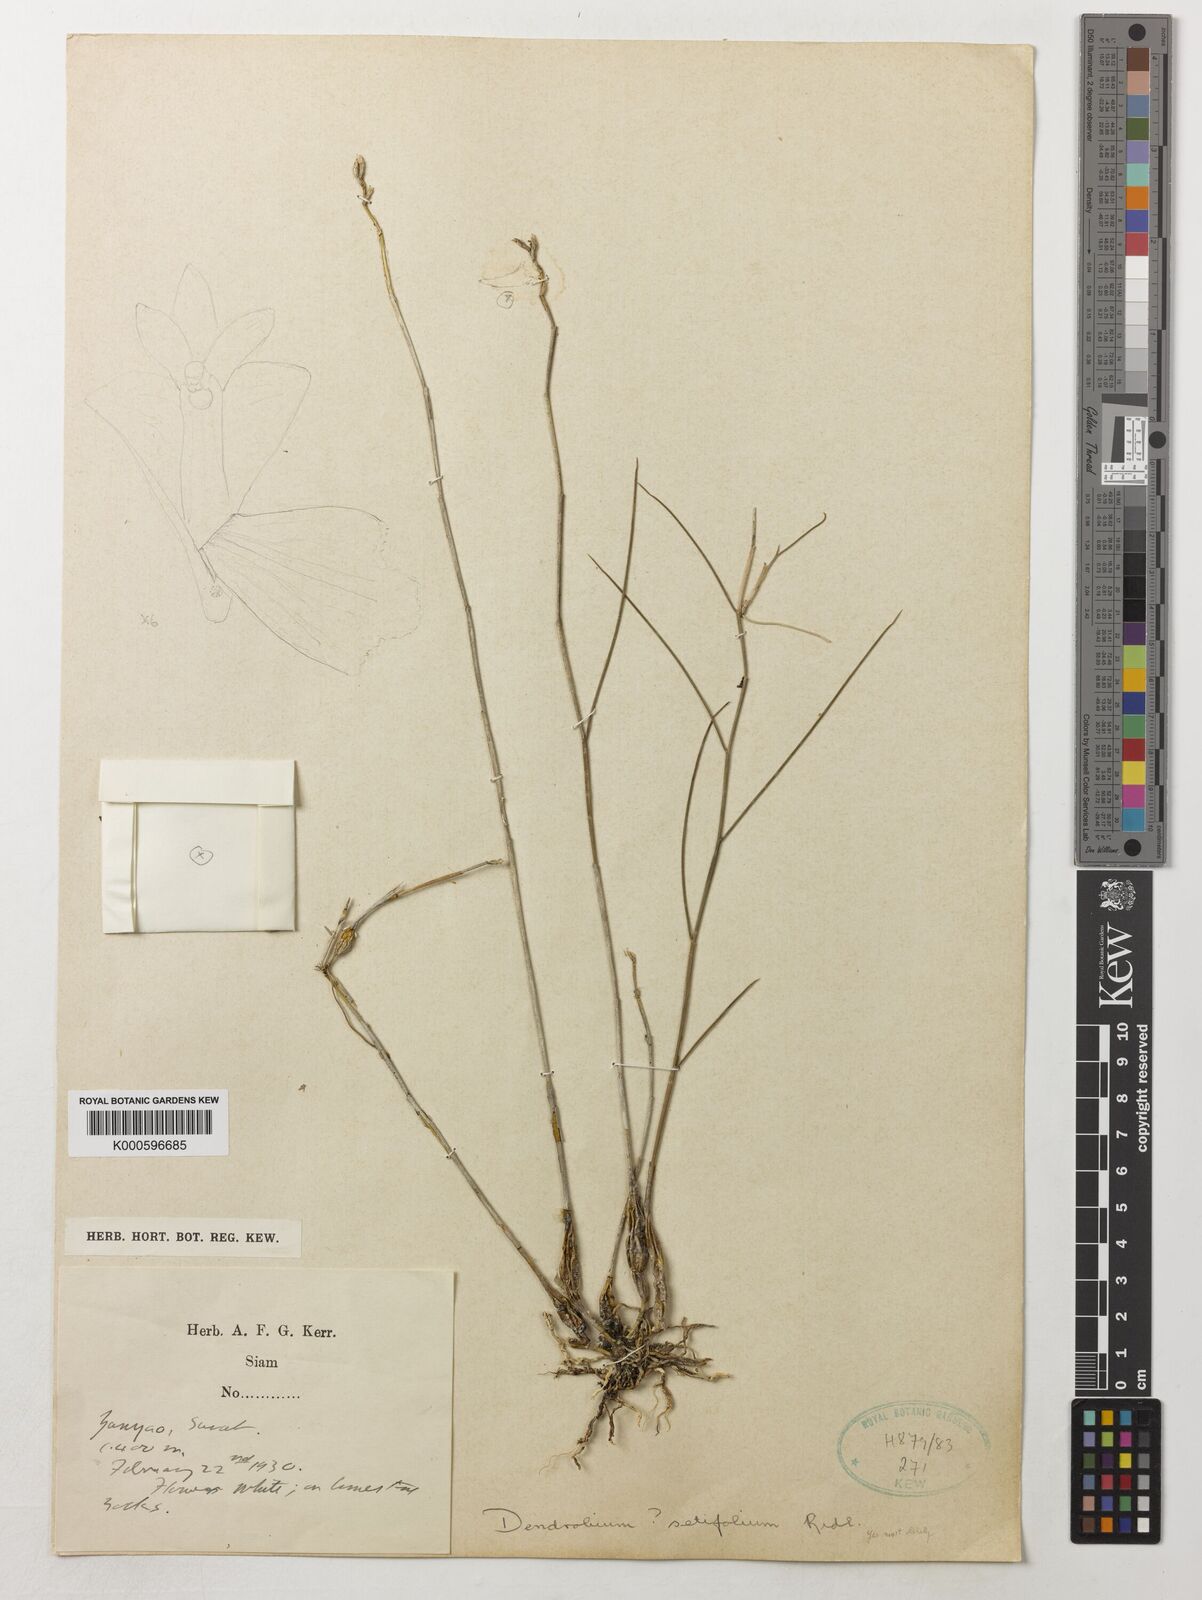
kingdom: Plantae
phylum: Tracheophyta
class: Liliopsida
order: Asparagales
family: Orchidaceae
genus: Dendrobium
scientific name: Dendrobium setifolium
